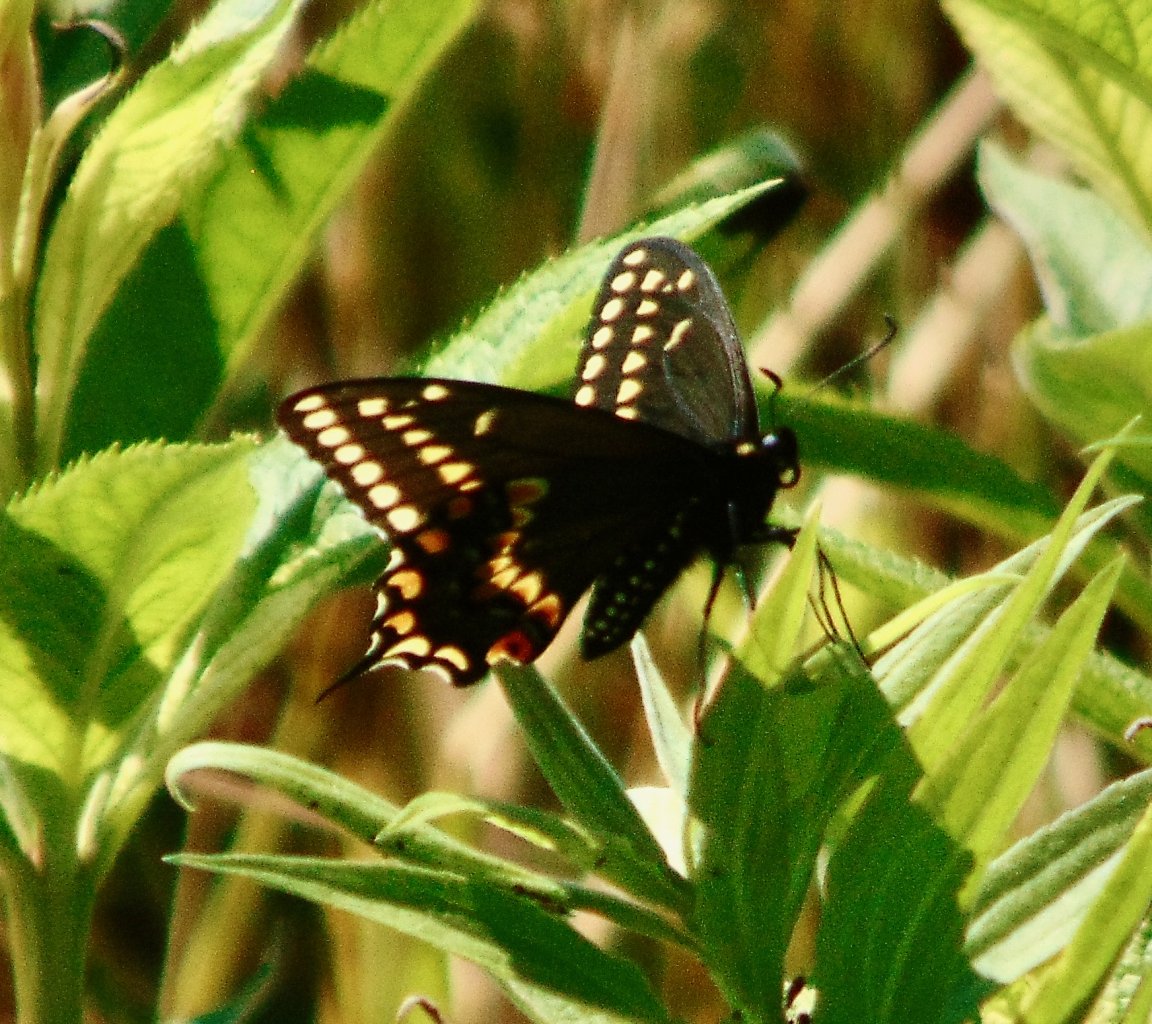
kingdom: Animalia
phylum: Arthropoda
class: Insecta
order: Lepidoptera
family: Papilionidae
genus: Papilio
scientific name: Papilio polyxenes
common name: Black Swallowtail
